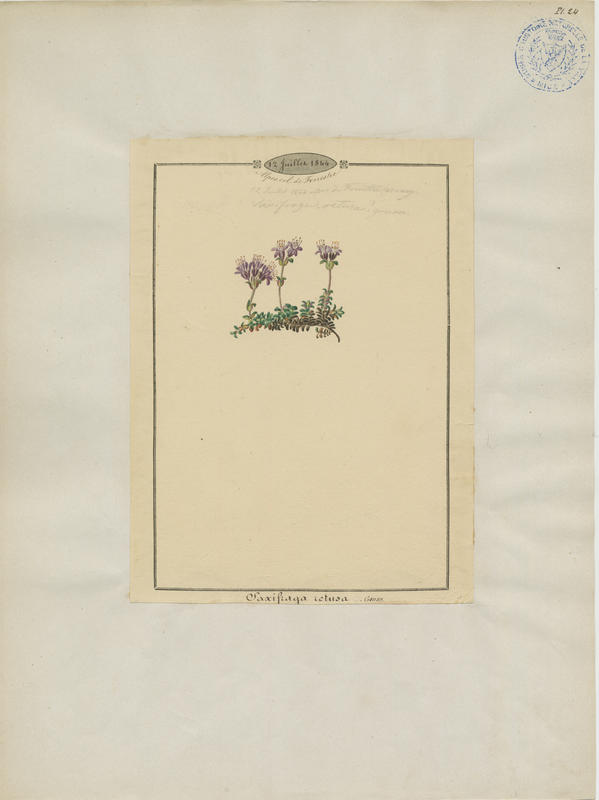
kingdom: Plantae
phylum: Tracheophyta
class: Magnoliopsida
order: Saxifragales
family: Saxifragaceae
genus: Saxifraga
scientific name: Saxifraga retusa
